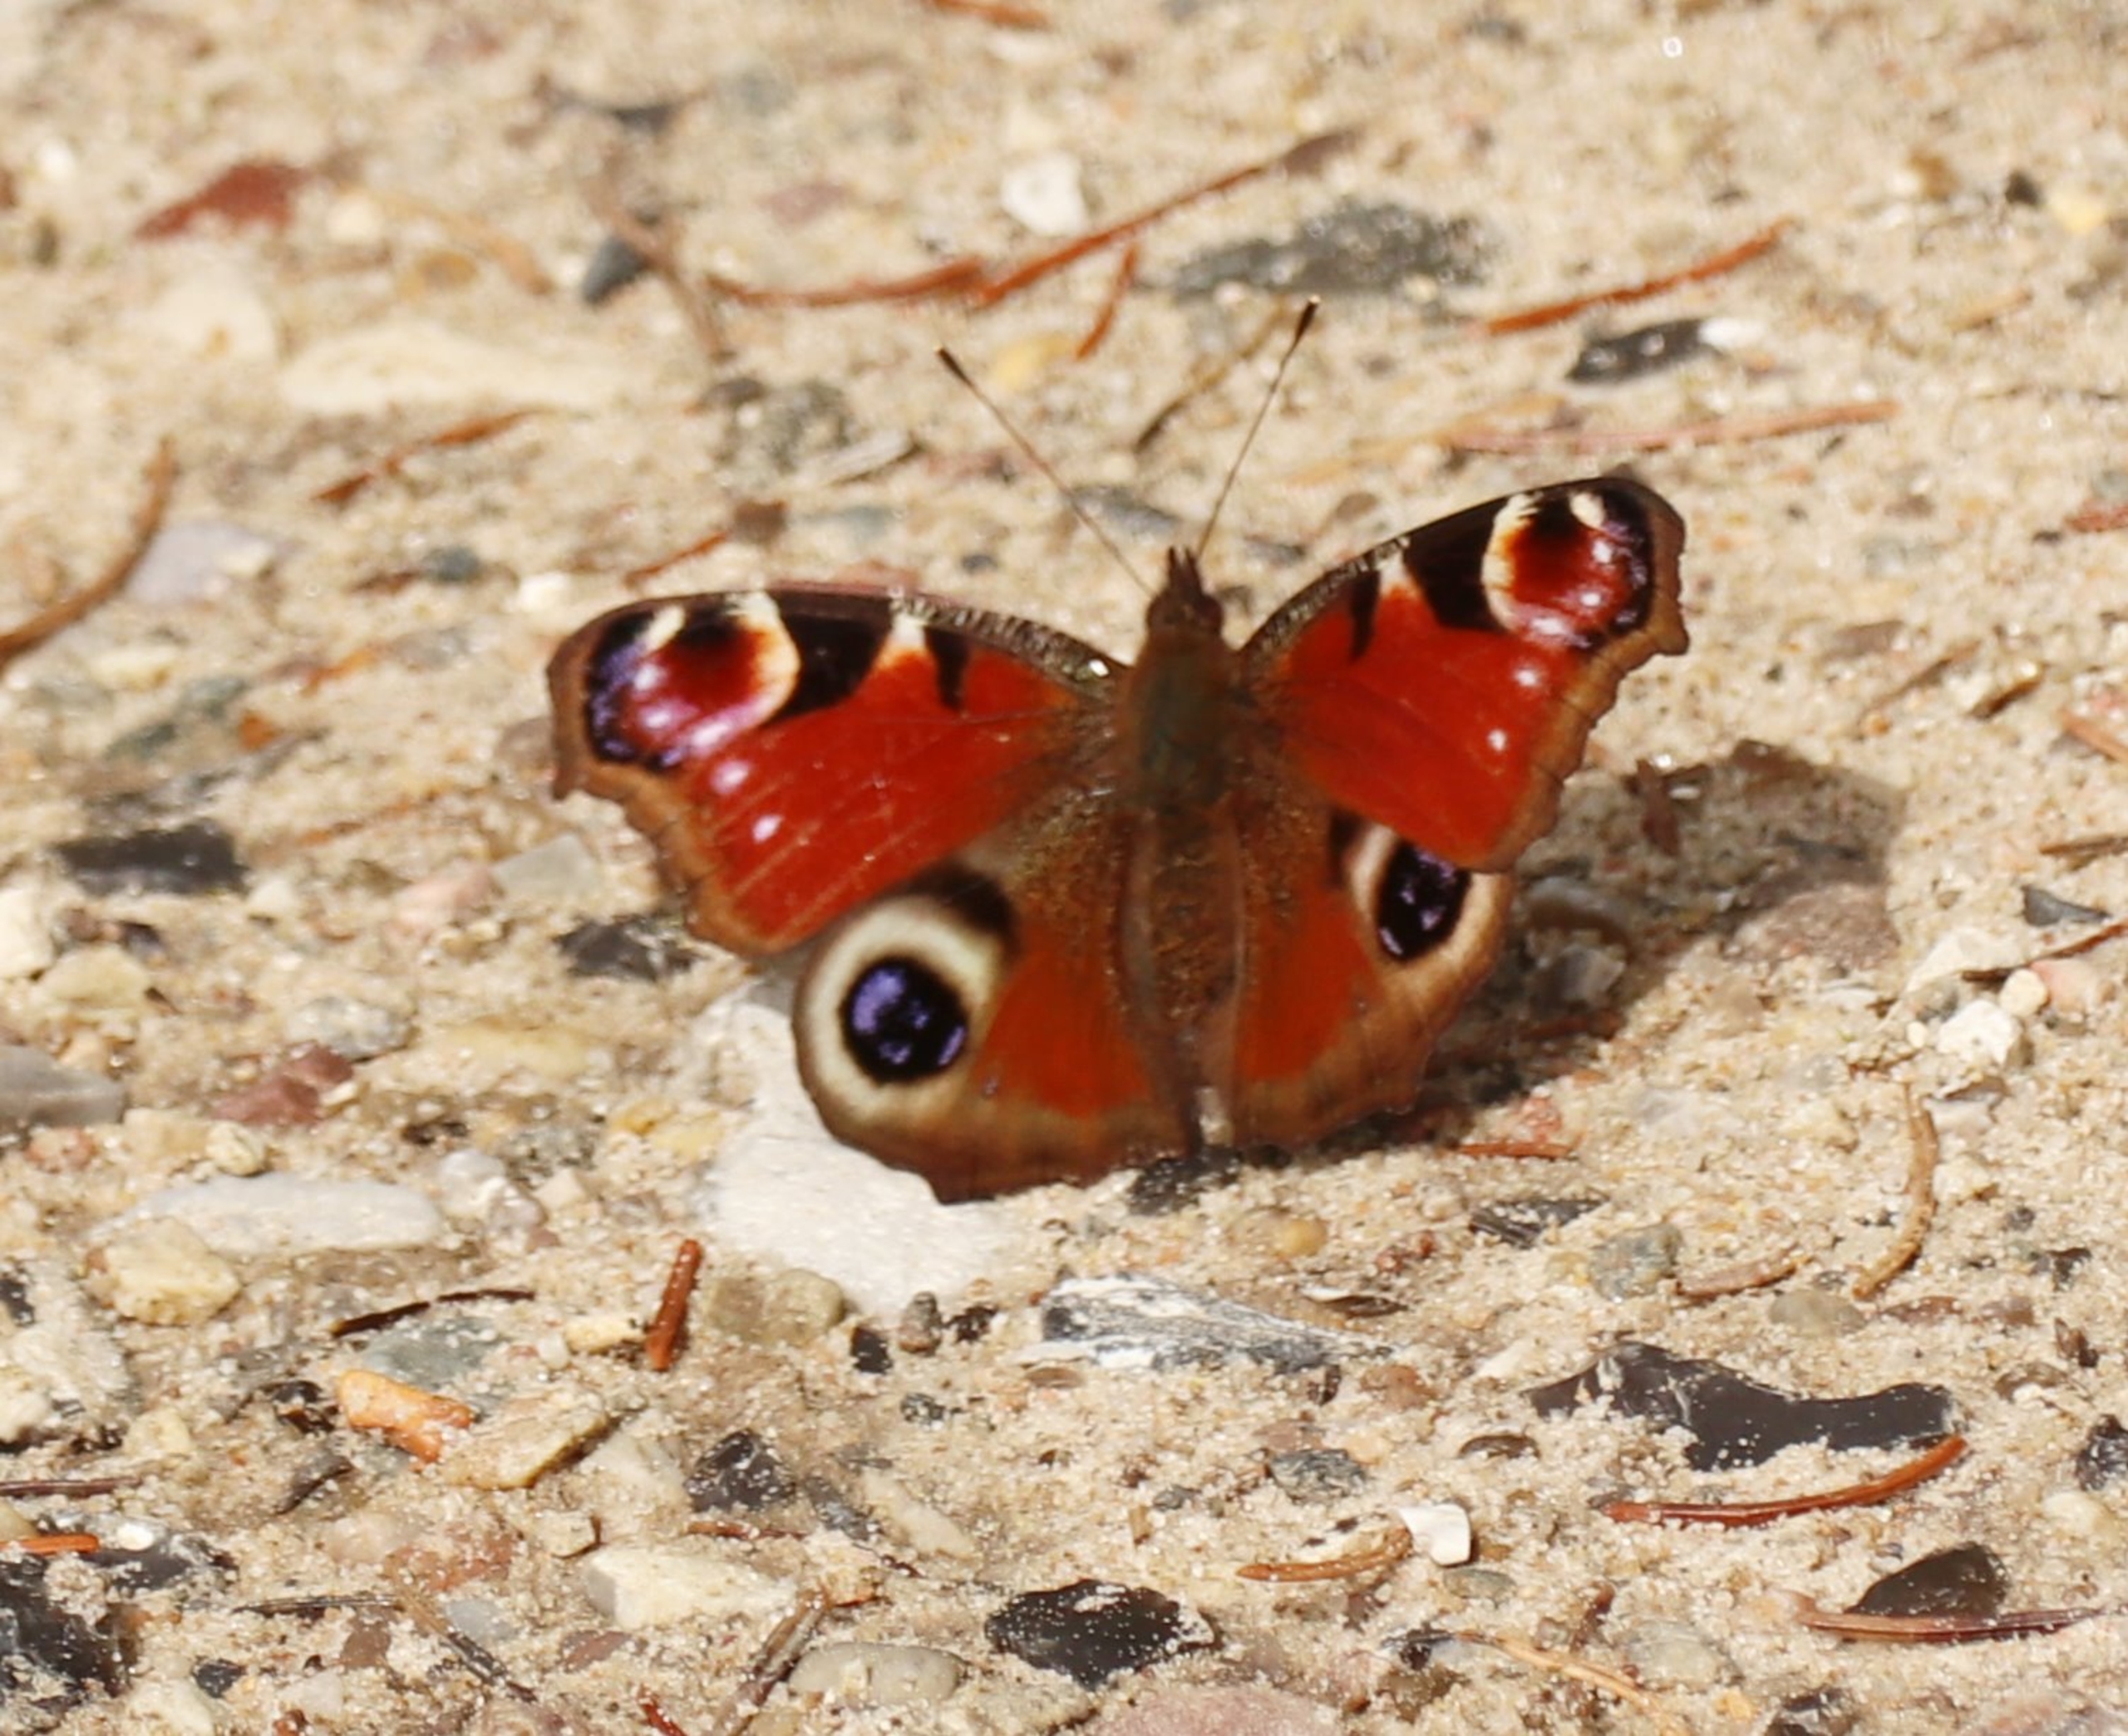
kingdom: Animalia
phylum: Arthropoda
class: Insecta
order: Lepidoptera
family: Nymphalidae
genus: Aglais
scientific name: Aglais io
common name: Dagpåfugleøje
